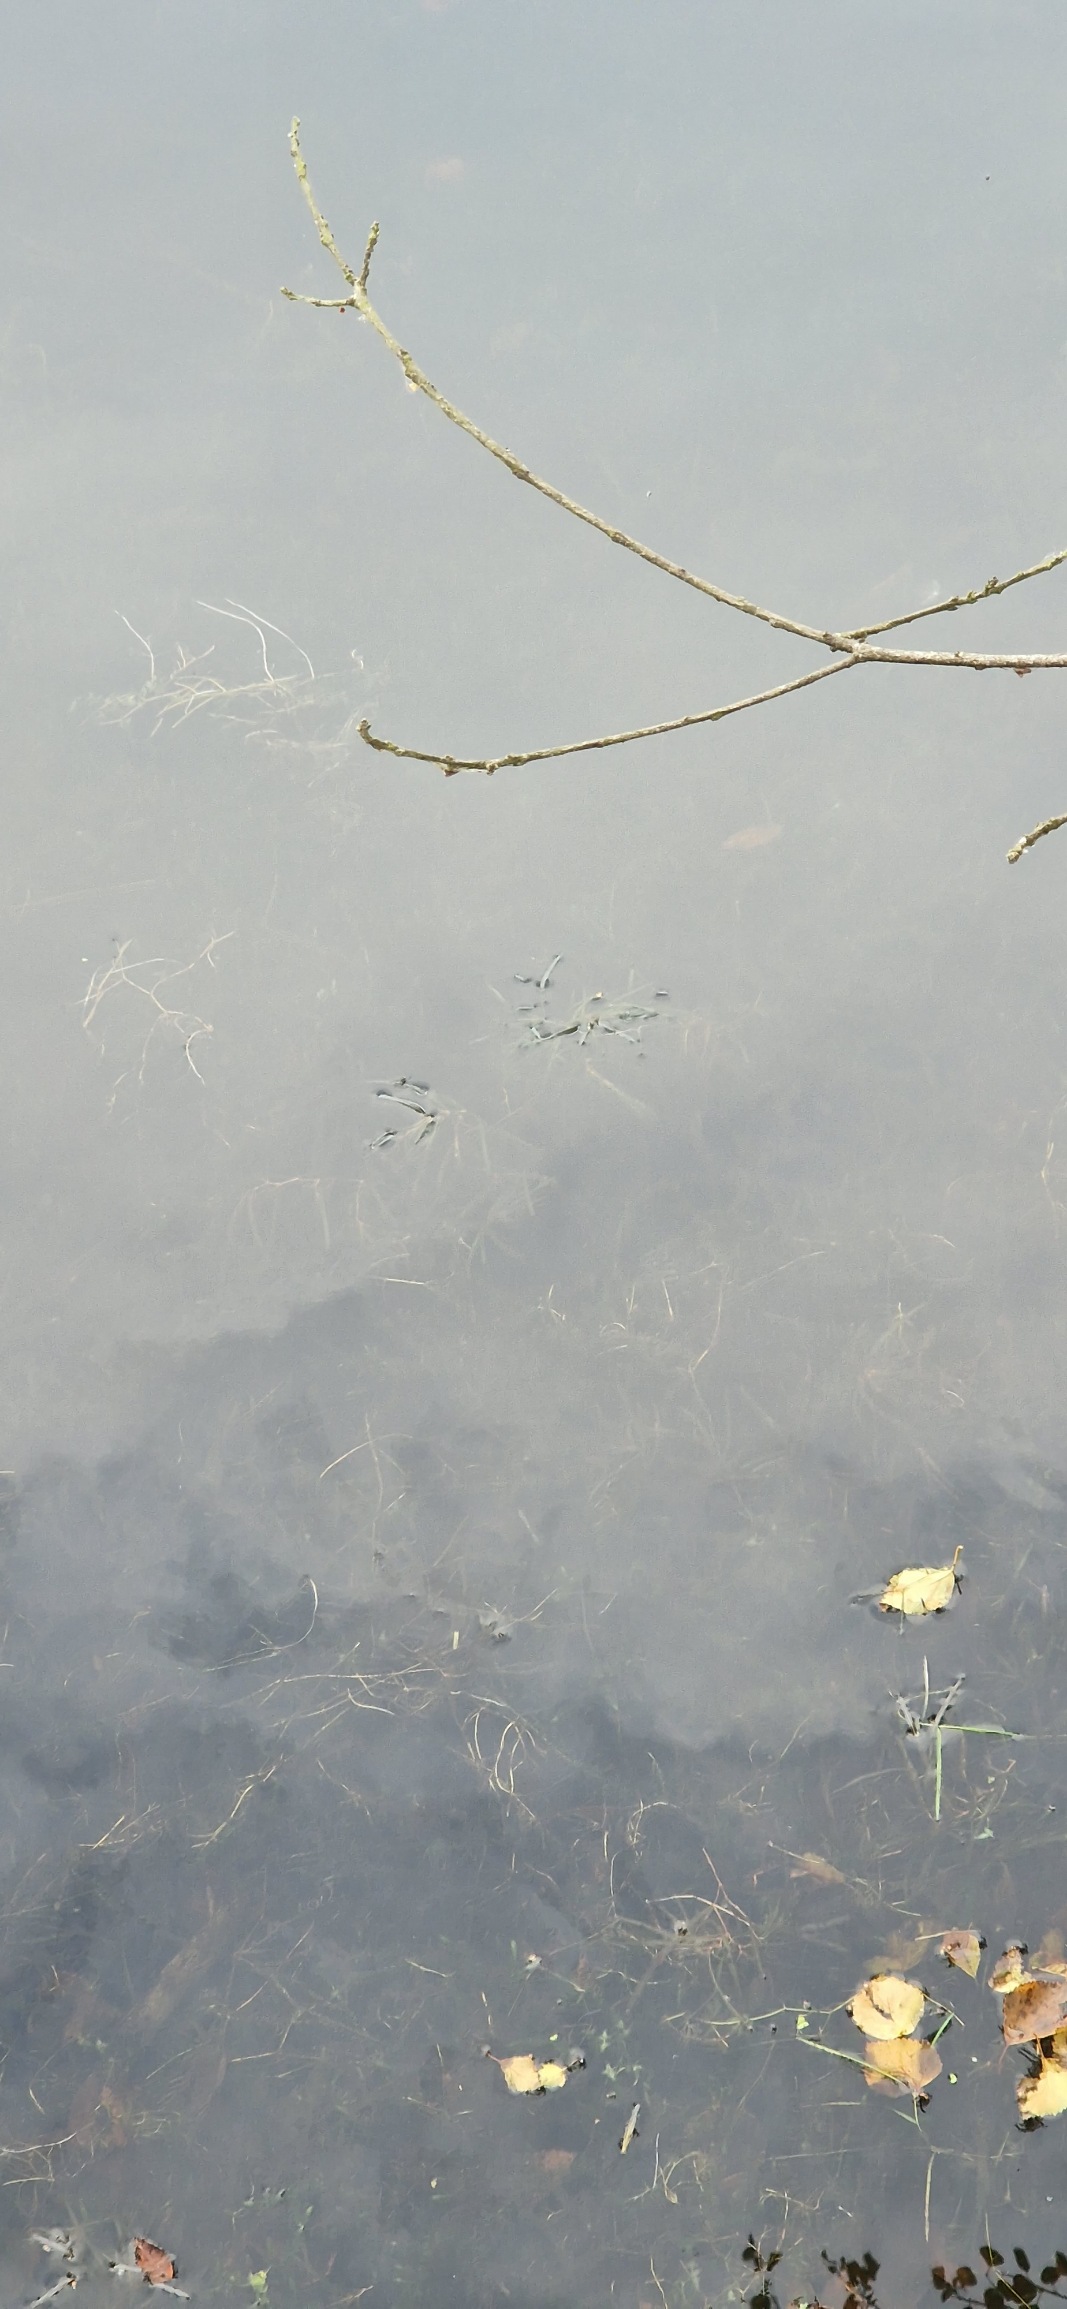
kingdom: Plantae
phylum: Tracheophyta
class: Liliopsida
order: Alismatales
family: Potamogetonaceae
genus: Potamogeton
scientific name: Potamogeton berchtoldii
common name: Liden vandaks
